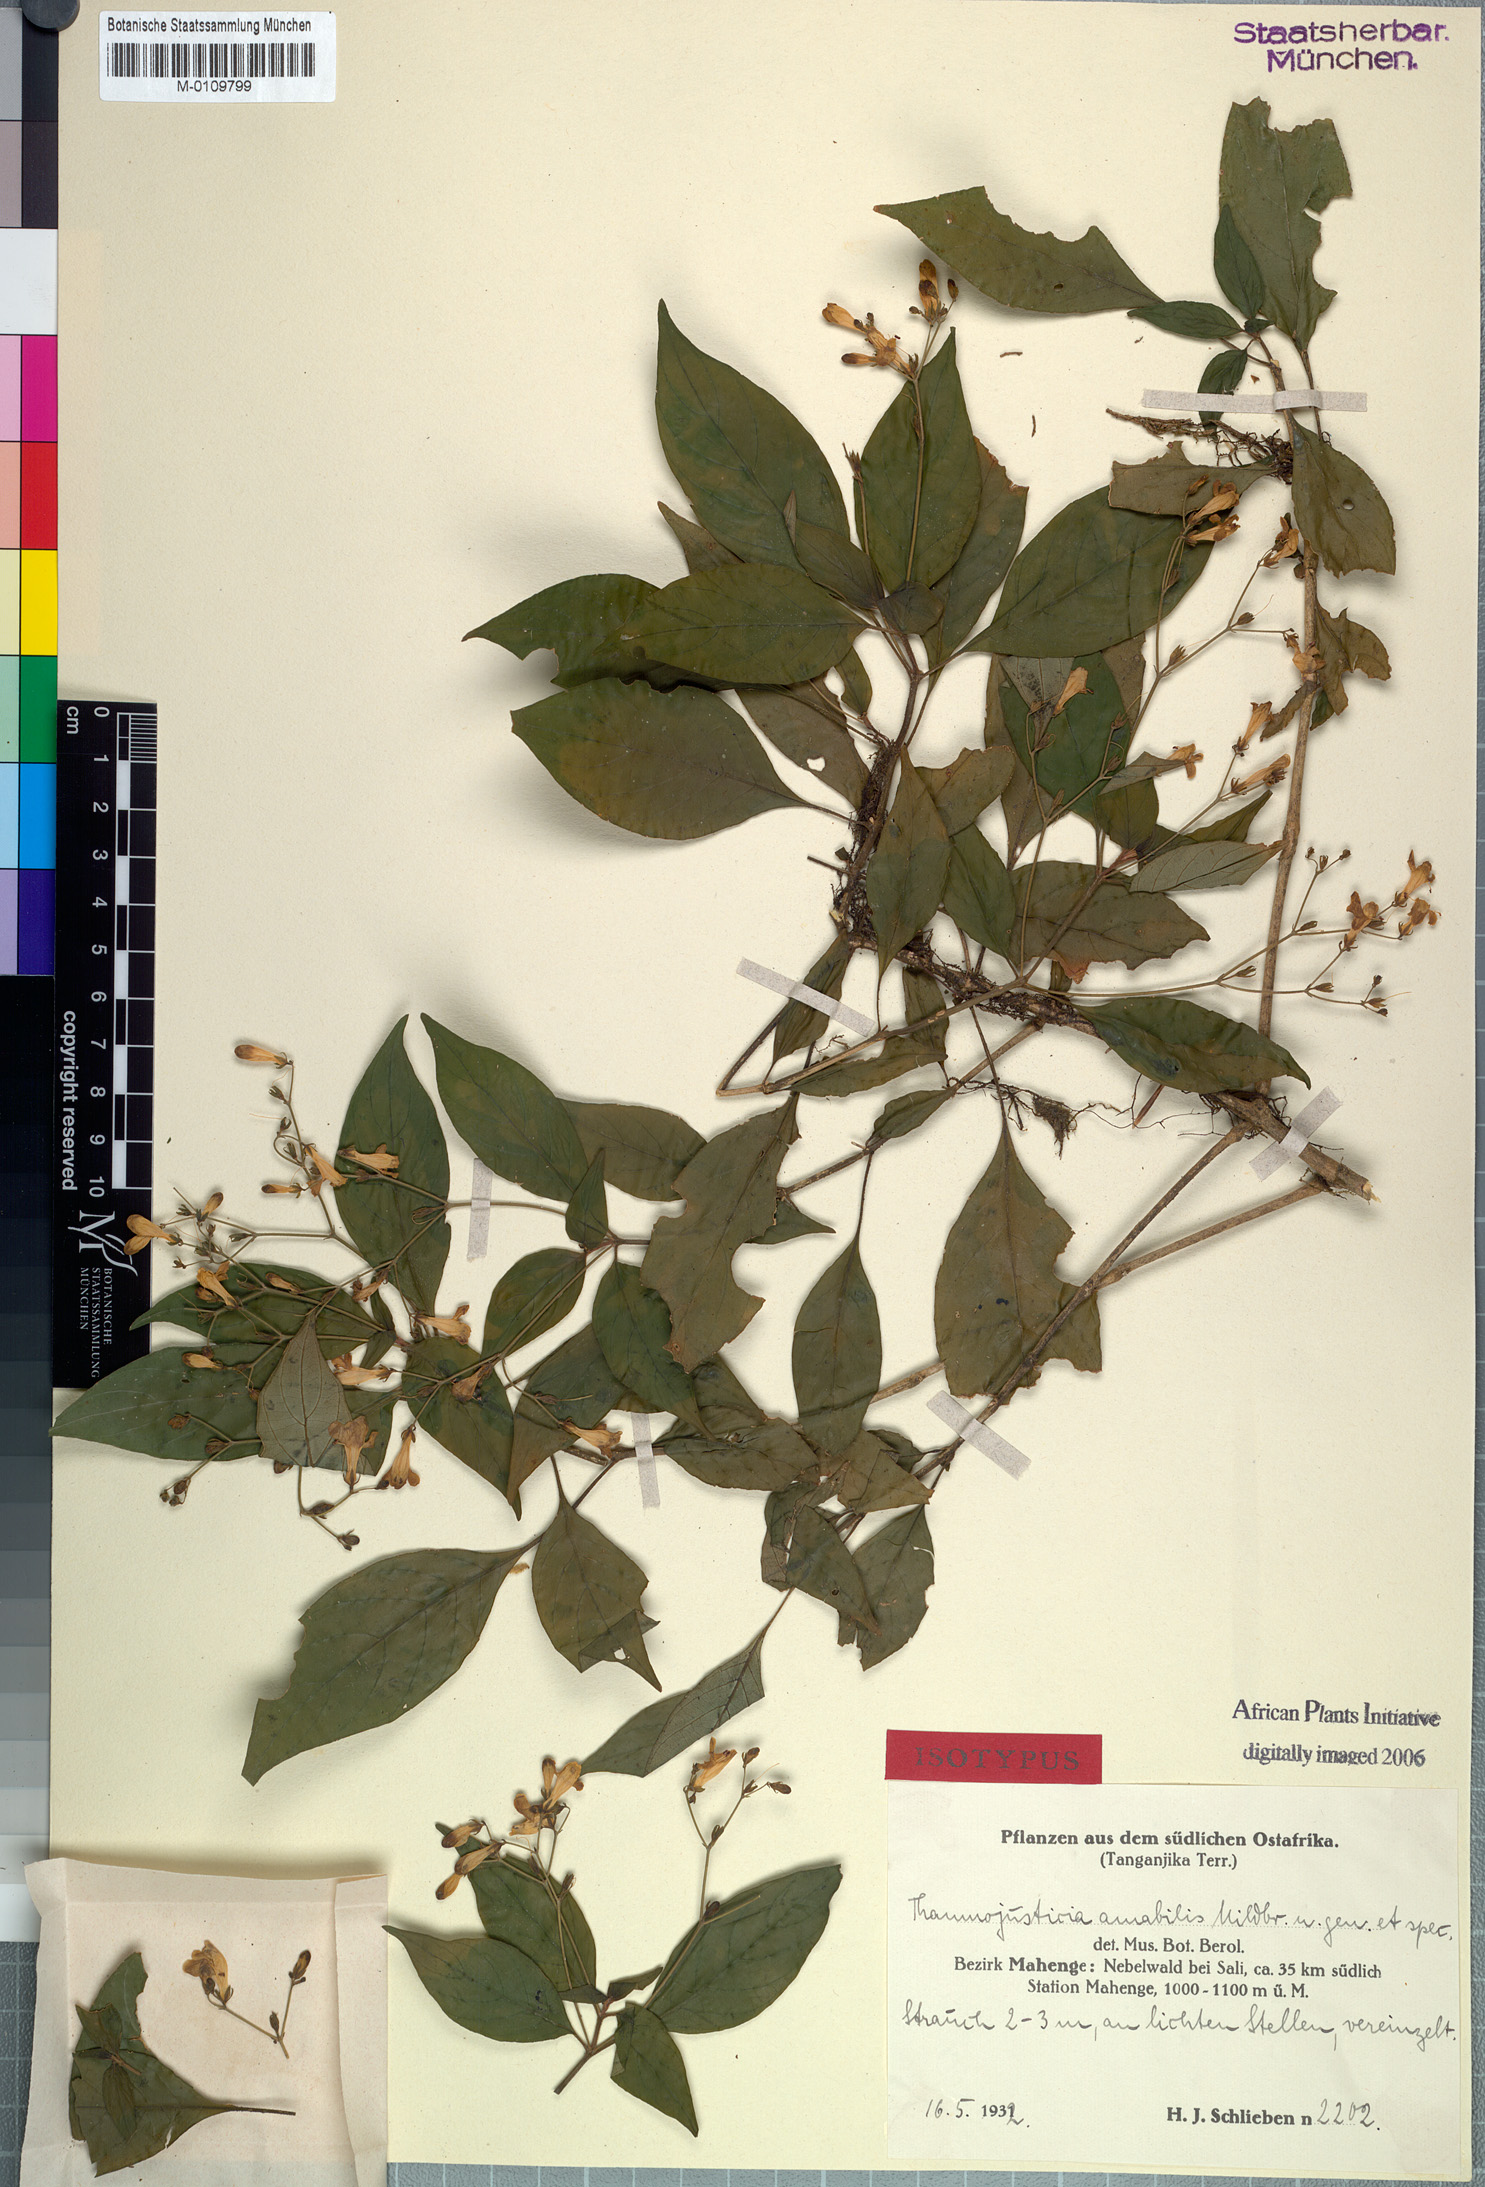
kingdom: Plantae
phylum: Tracheophyta
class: Magnoliopsida
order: Lamiales
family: Acanthaceae
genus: Justicia
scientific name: Justicia asystasioides
